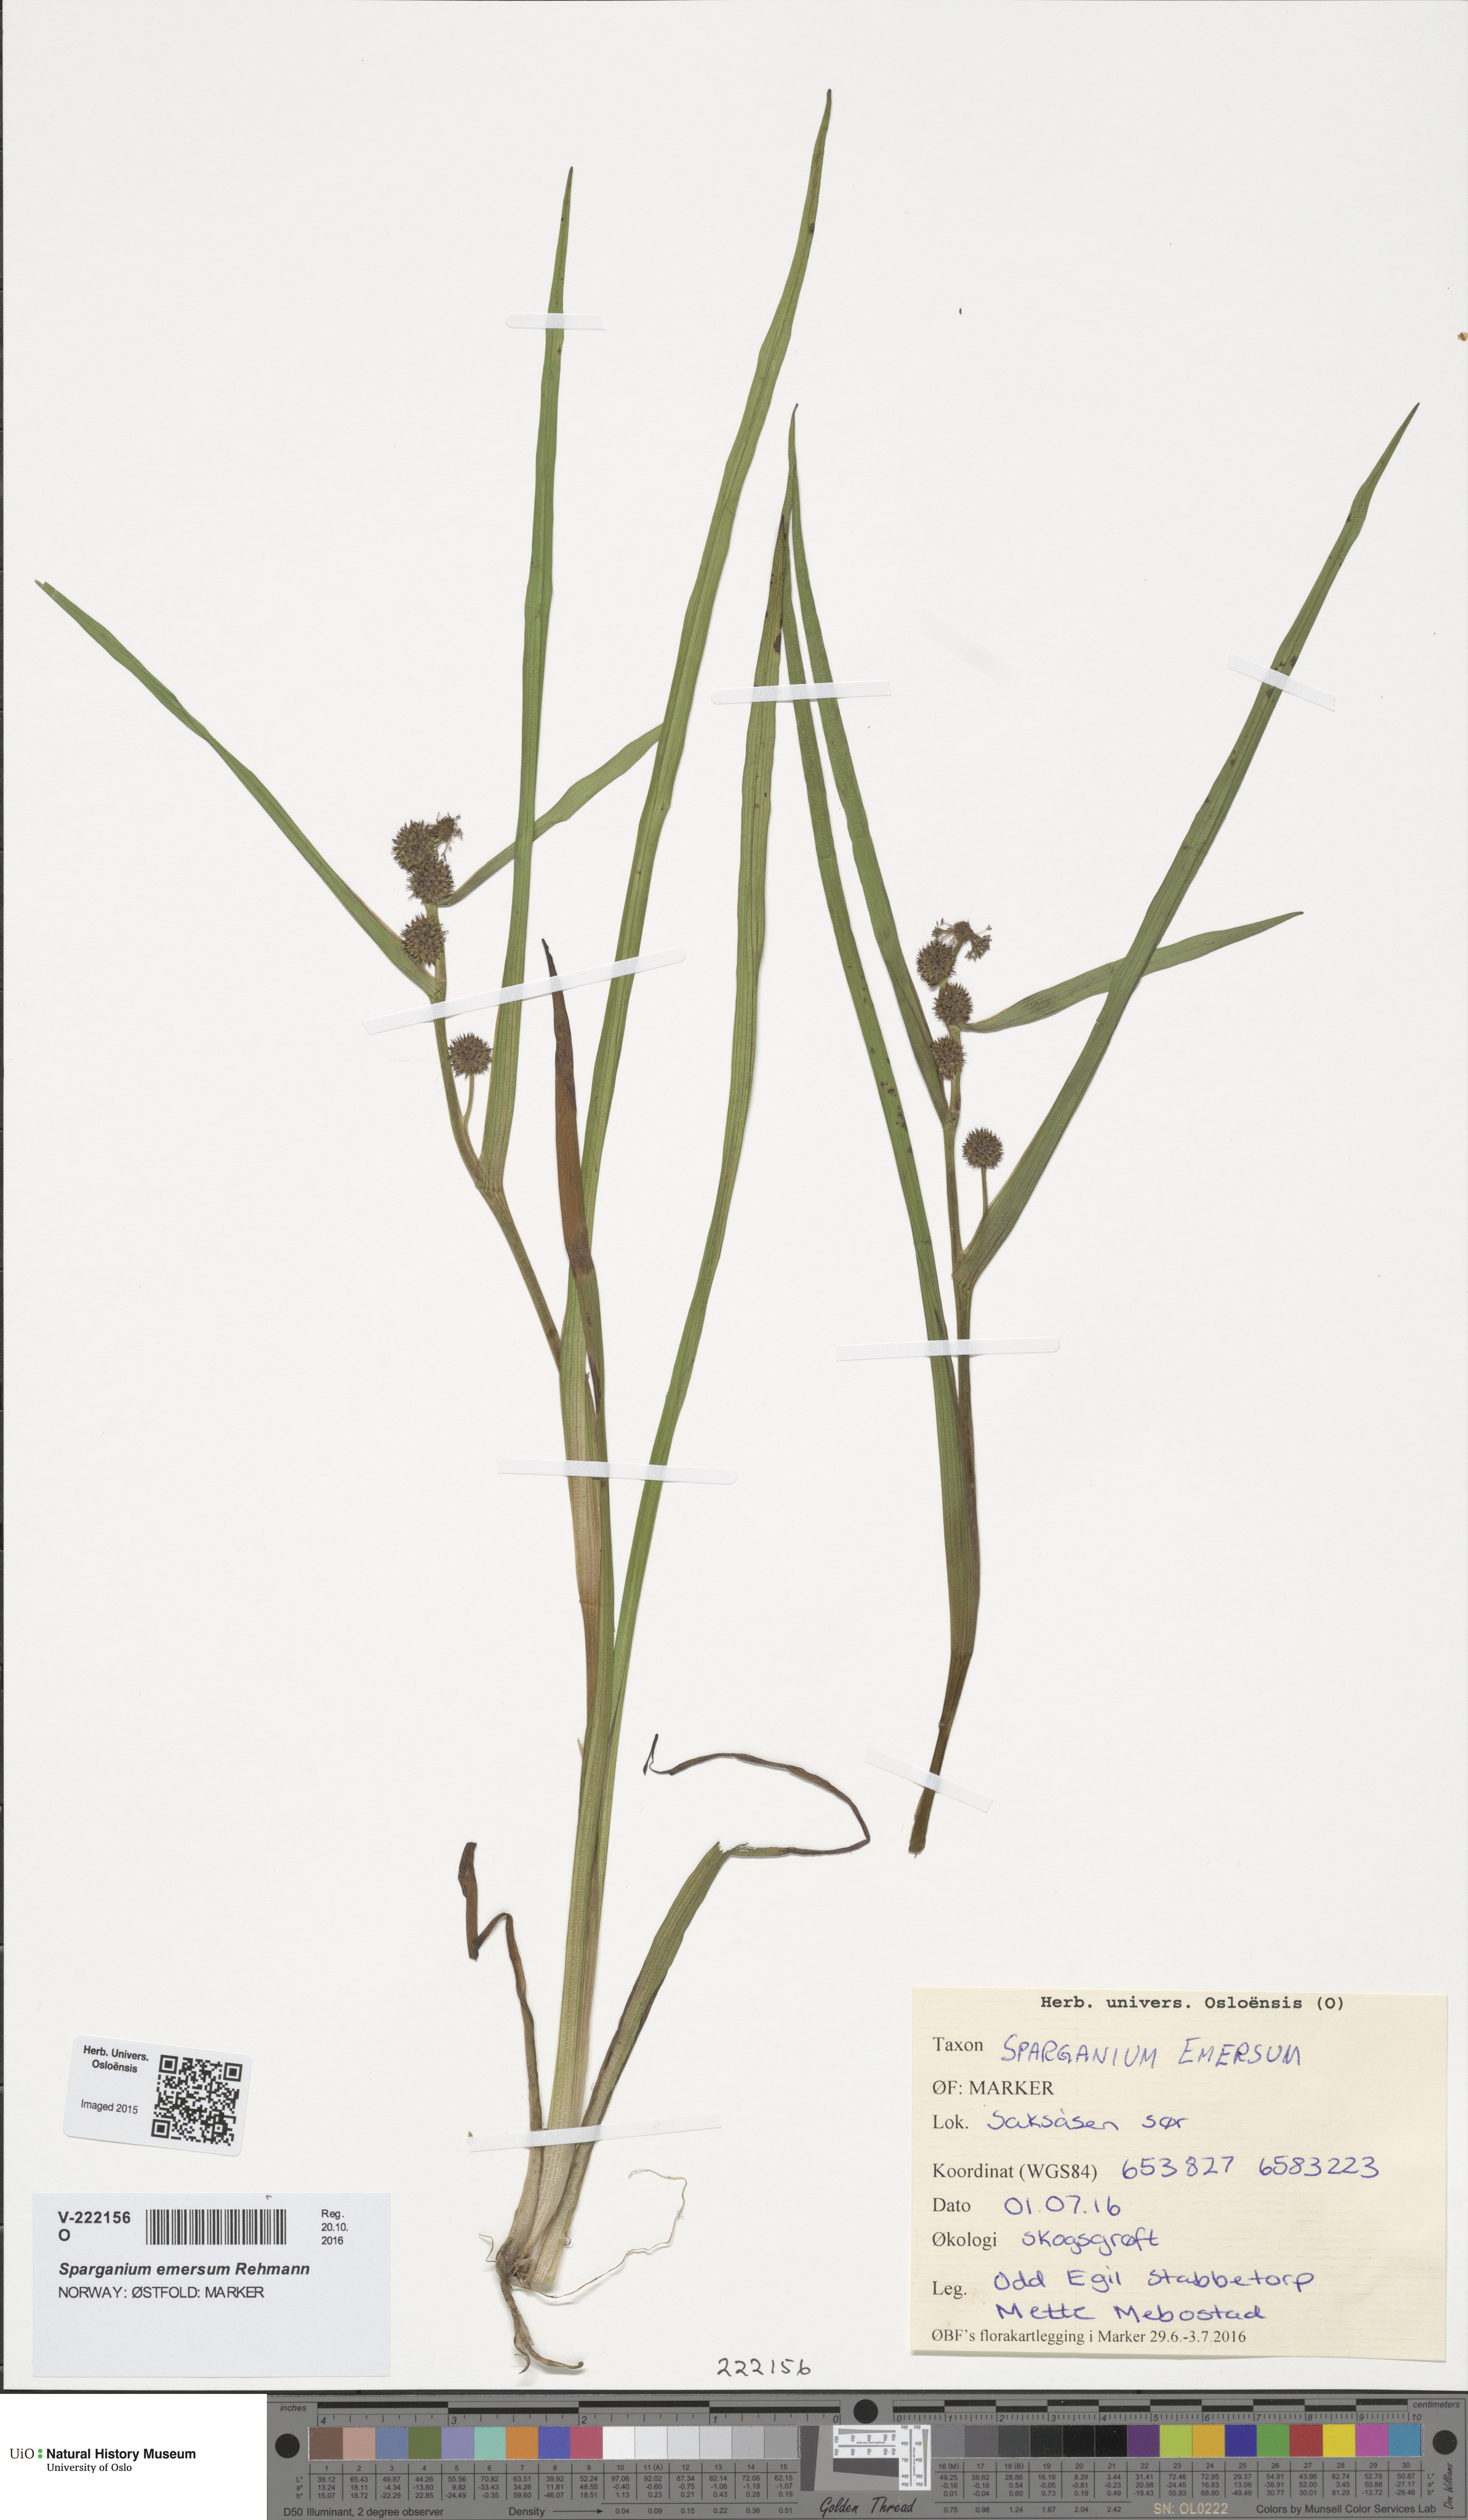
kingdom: Plantae
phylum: Tracheophyta
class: Liliopsida
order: Poales
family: Typhaceae
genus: Sparganium
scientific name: Sparganium emersum
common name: Unbranched bur-reed
